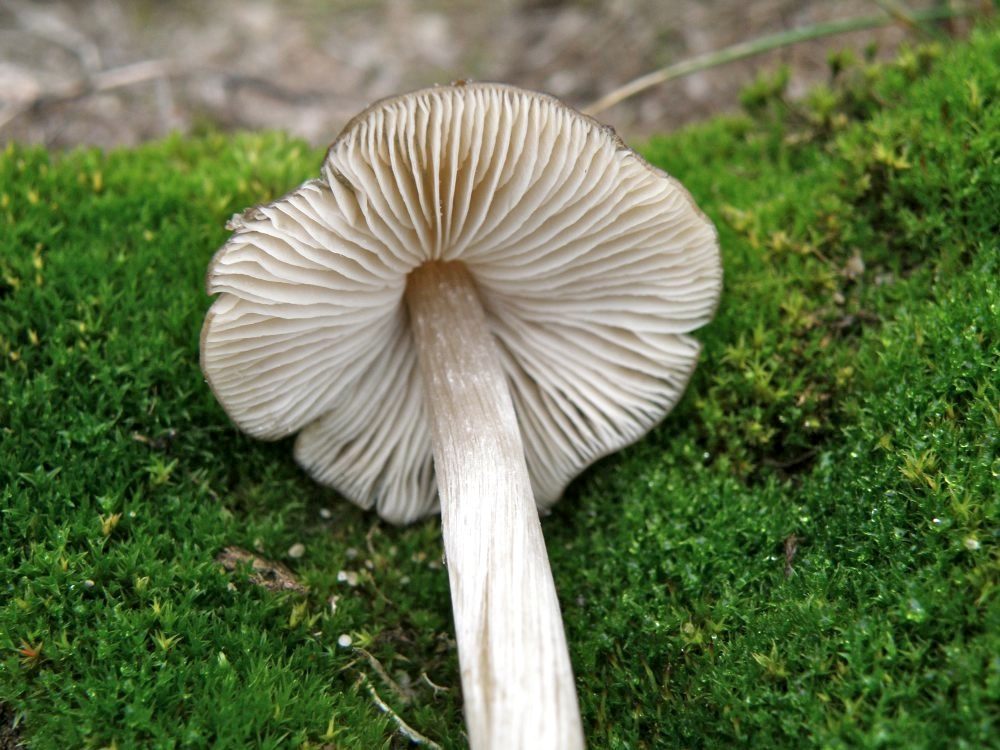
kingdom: Fungi
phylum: Basidiomycota
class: Agaricomycetes
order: Agaricales
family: Entolomataceae
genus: Entoloma
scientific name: Entoloma conferendum
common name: stjernesporet rødblad
